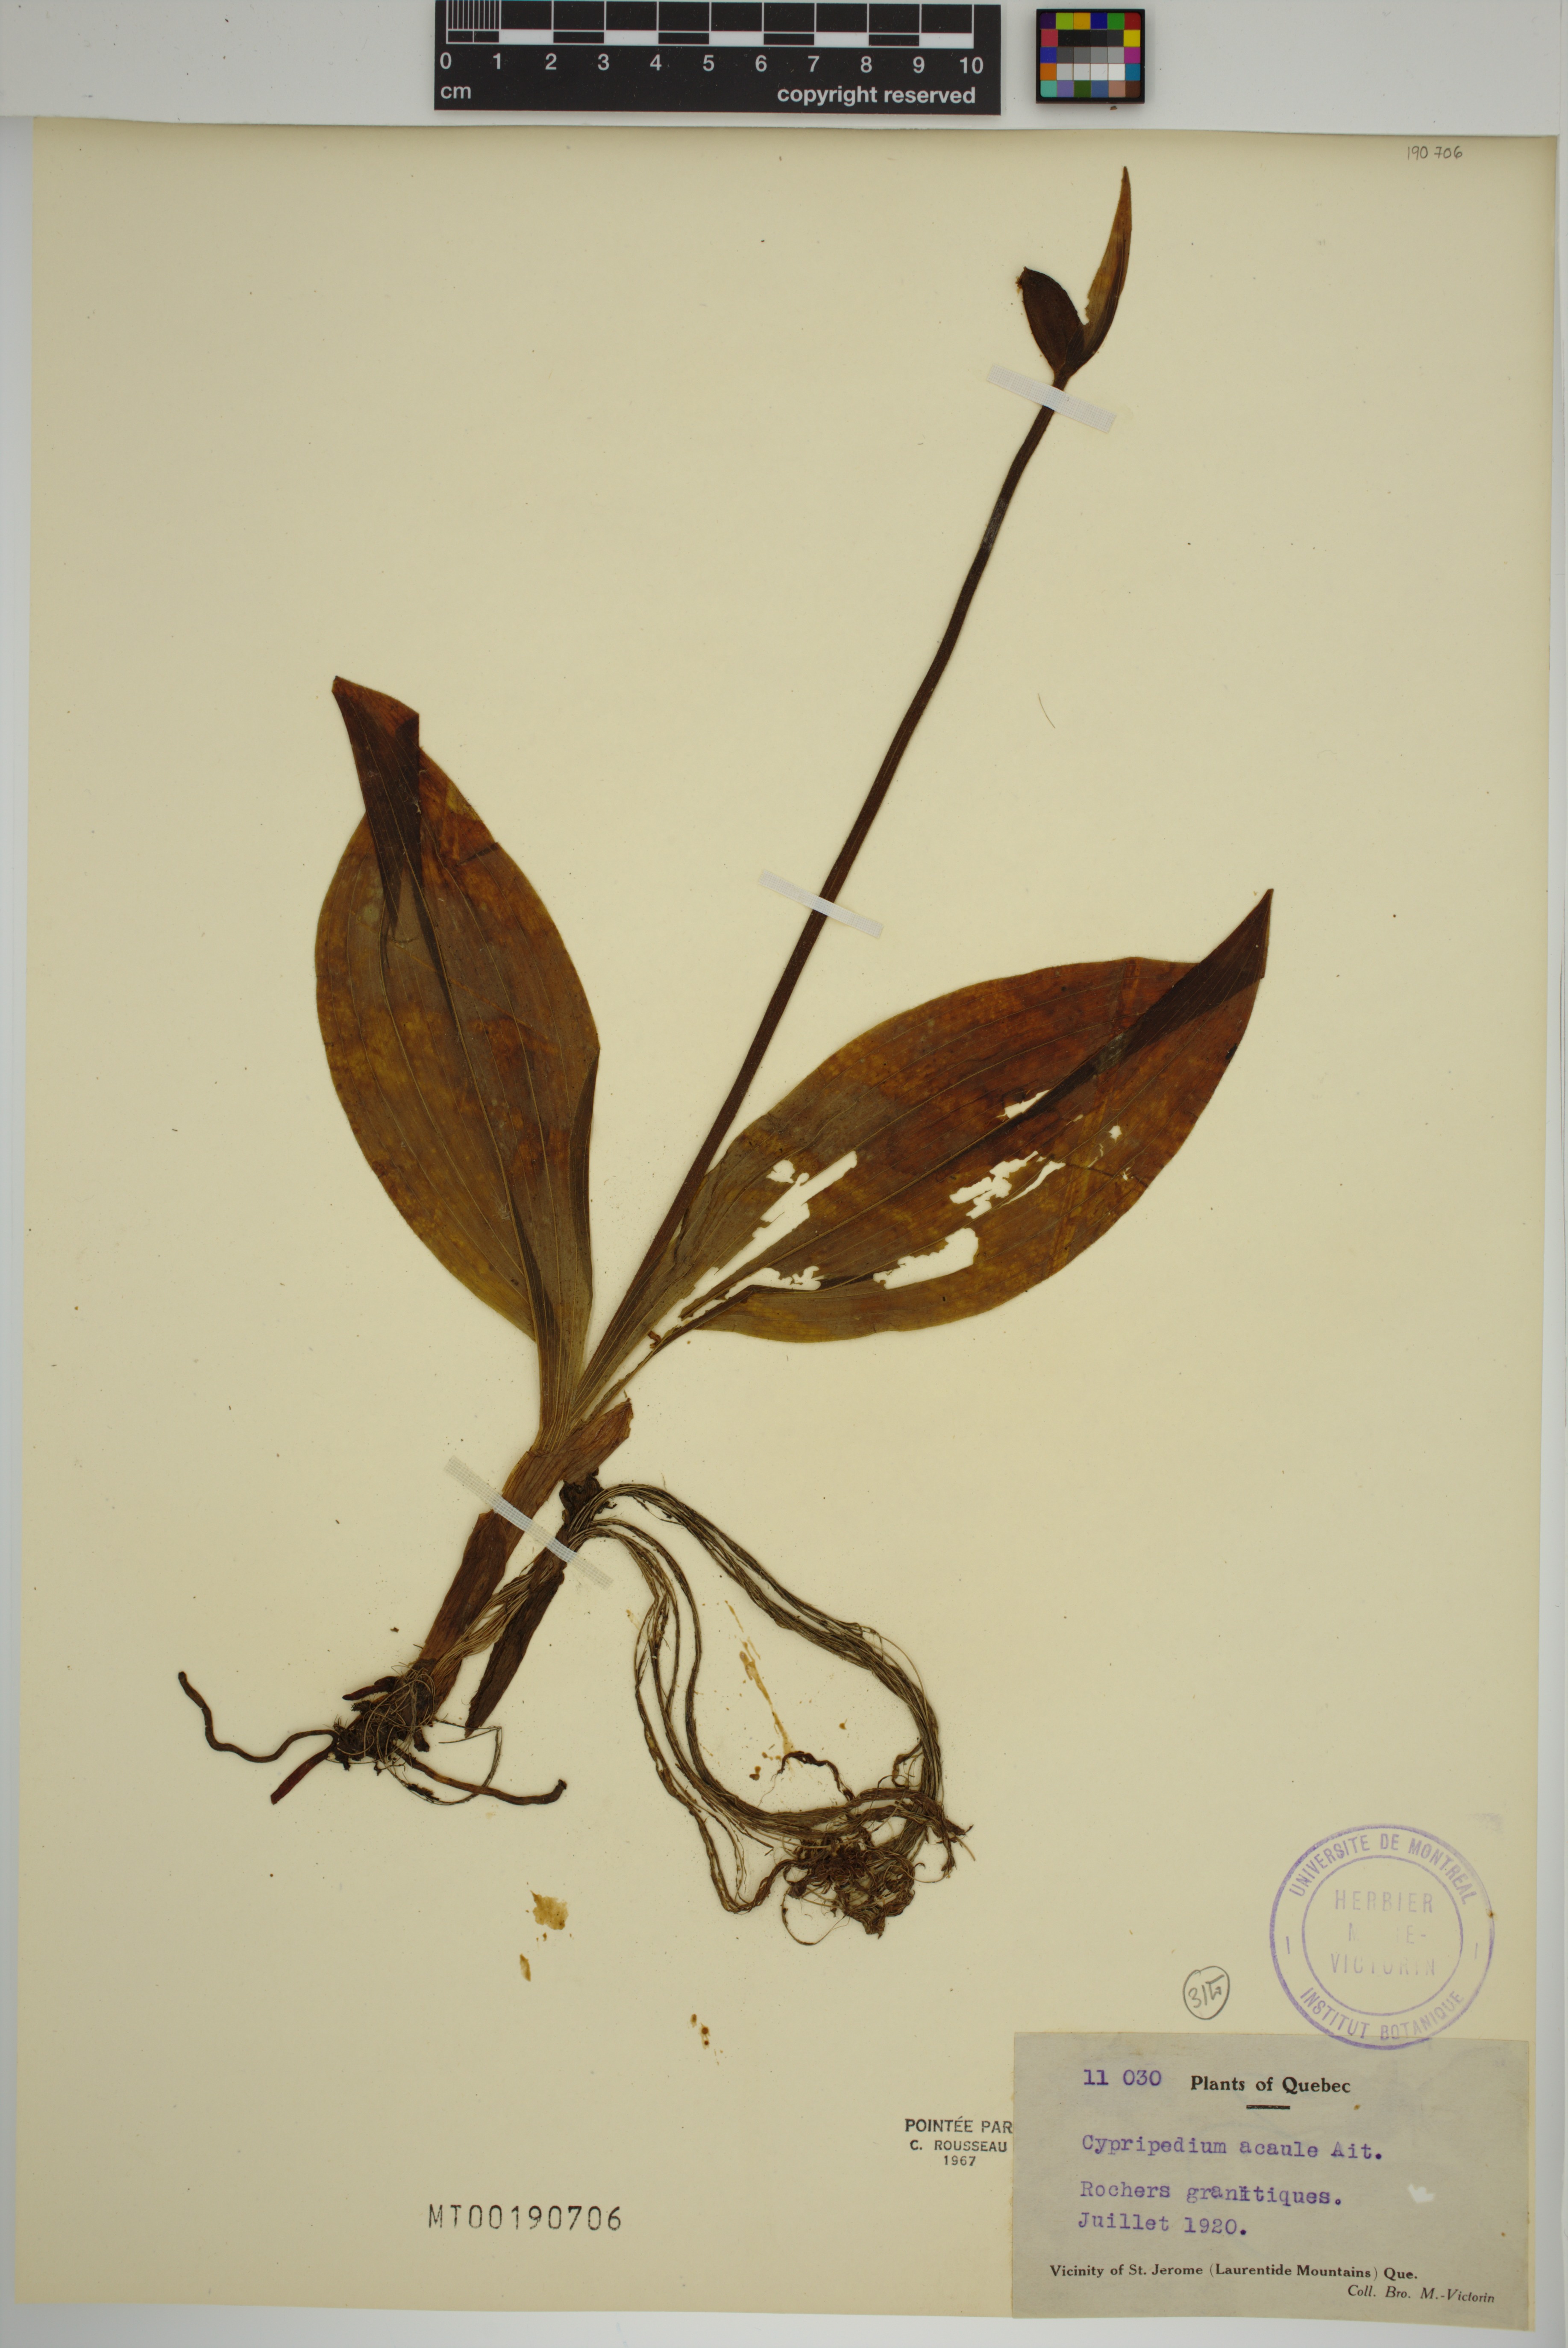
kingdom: Plantae
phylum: Tracheophyta
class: Liliopsida
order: Asparagales
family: Orchidaceae
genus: Cypripedium
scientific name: Cypripedium acaule
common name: Pink lady's-slipper
